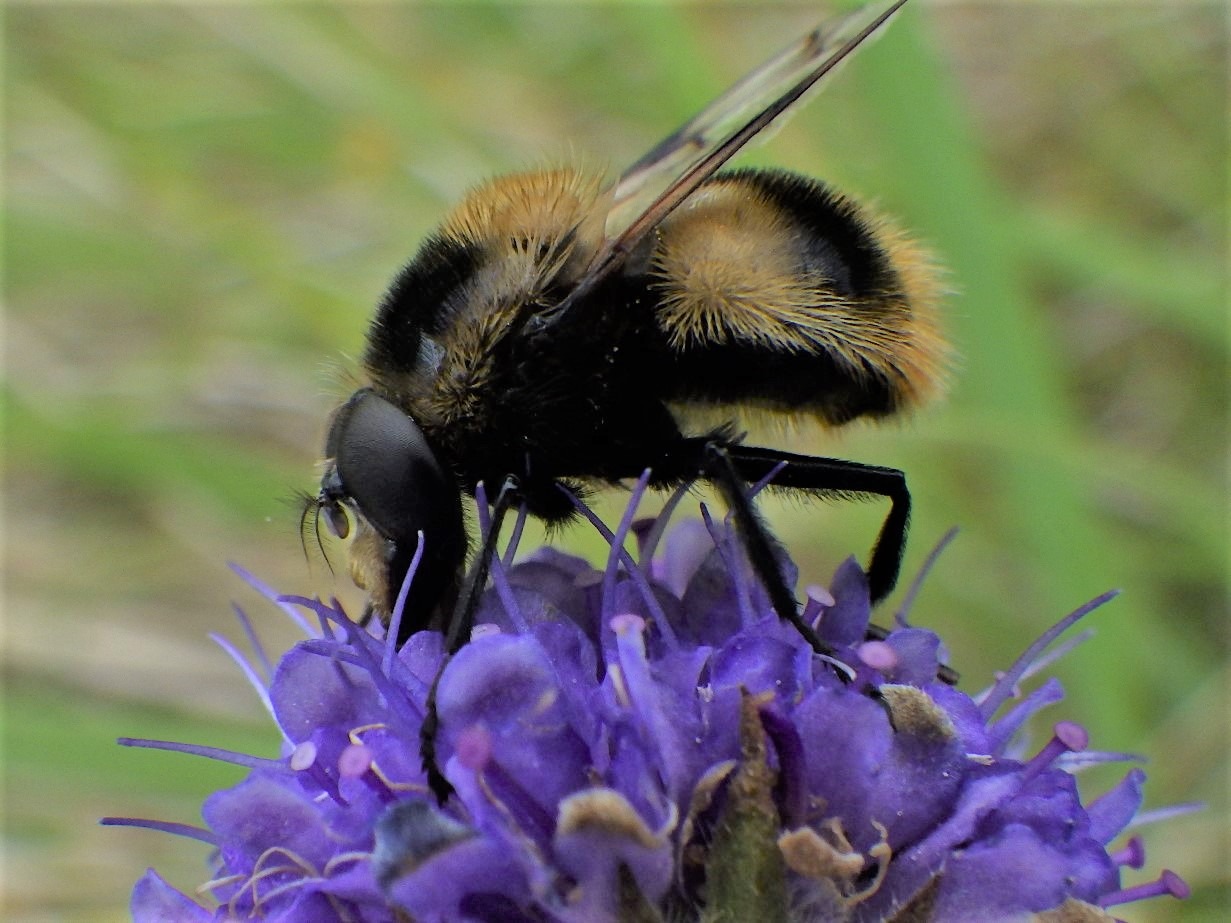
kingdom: Animalia
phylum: Arthropoda
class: Insecta
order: Diptera
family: Syrphidae
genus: Volucella
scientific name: Volucella bombylans
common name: Foranderlig humlesvirreflue
